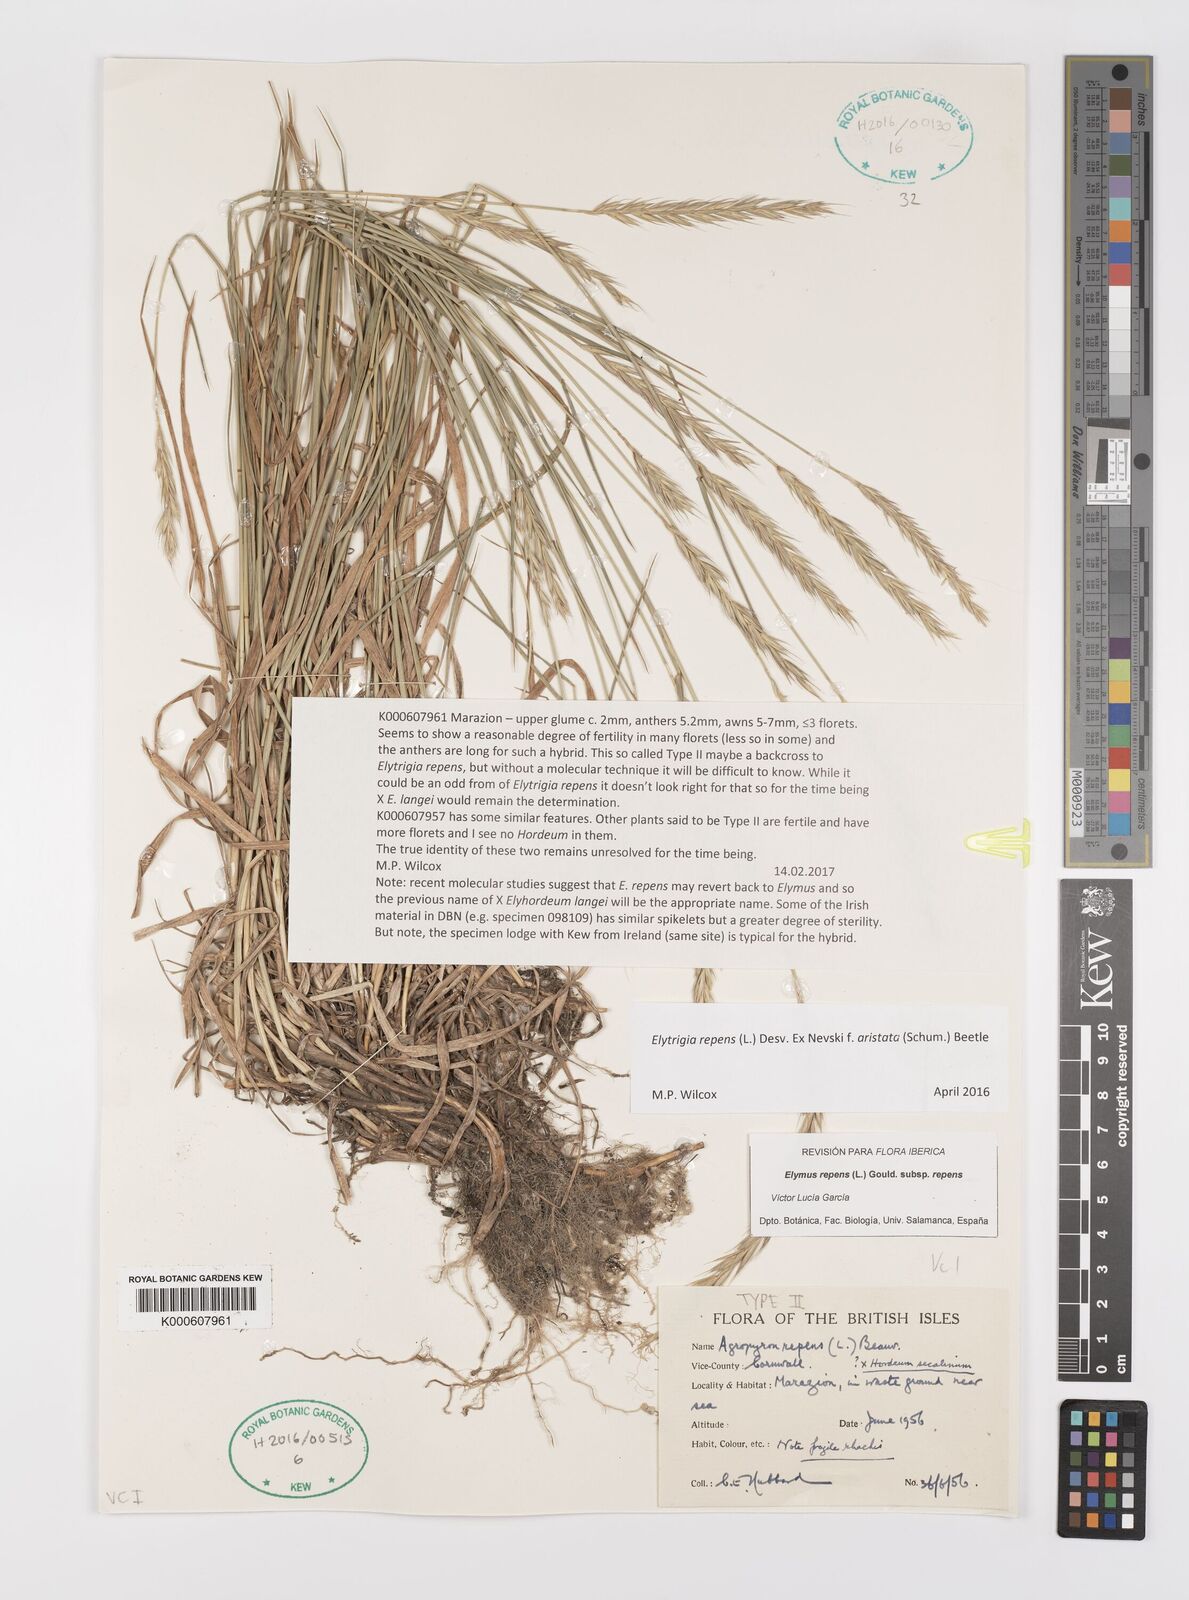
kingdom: Plantae
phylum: Tracheophyta
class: Liliopsida
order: Poales
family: Poaceae
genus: Elymus
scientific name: Elymus repens
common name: Quackgrass
